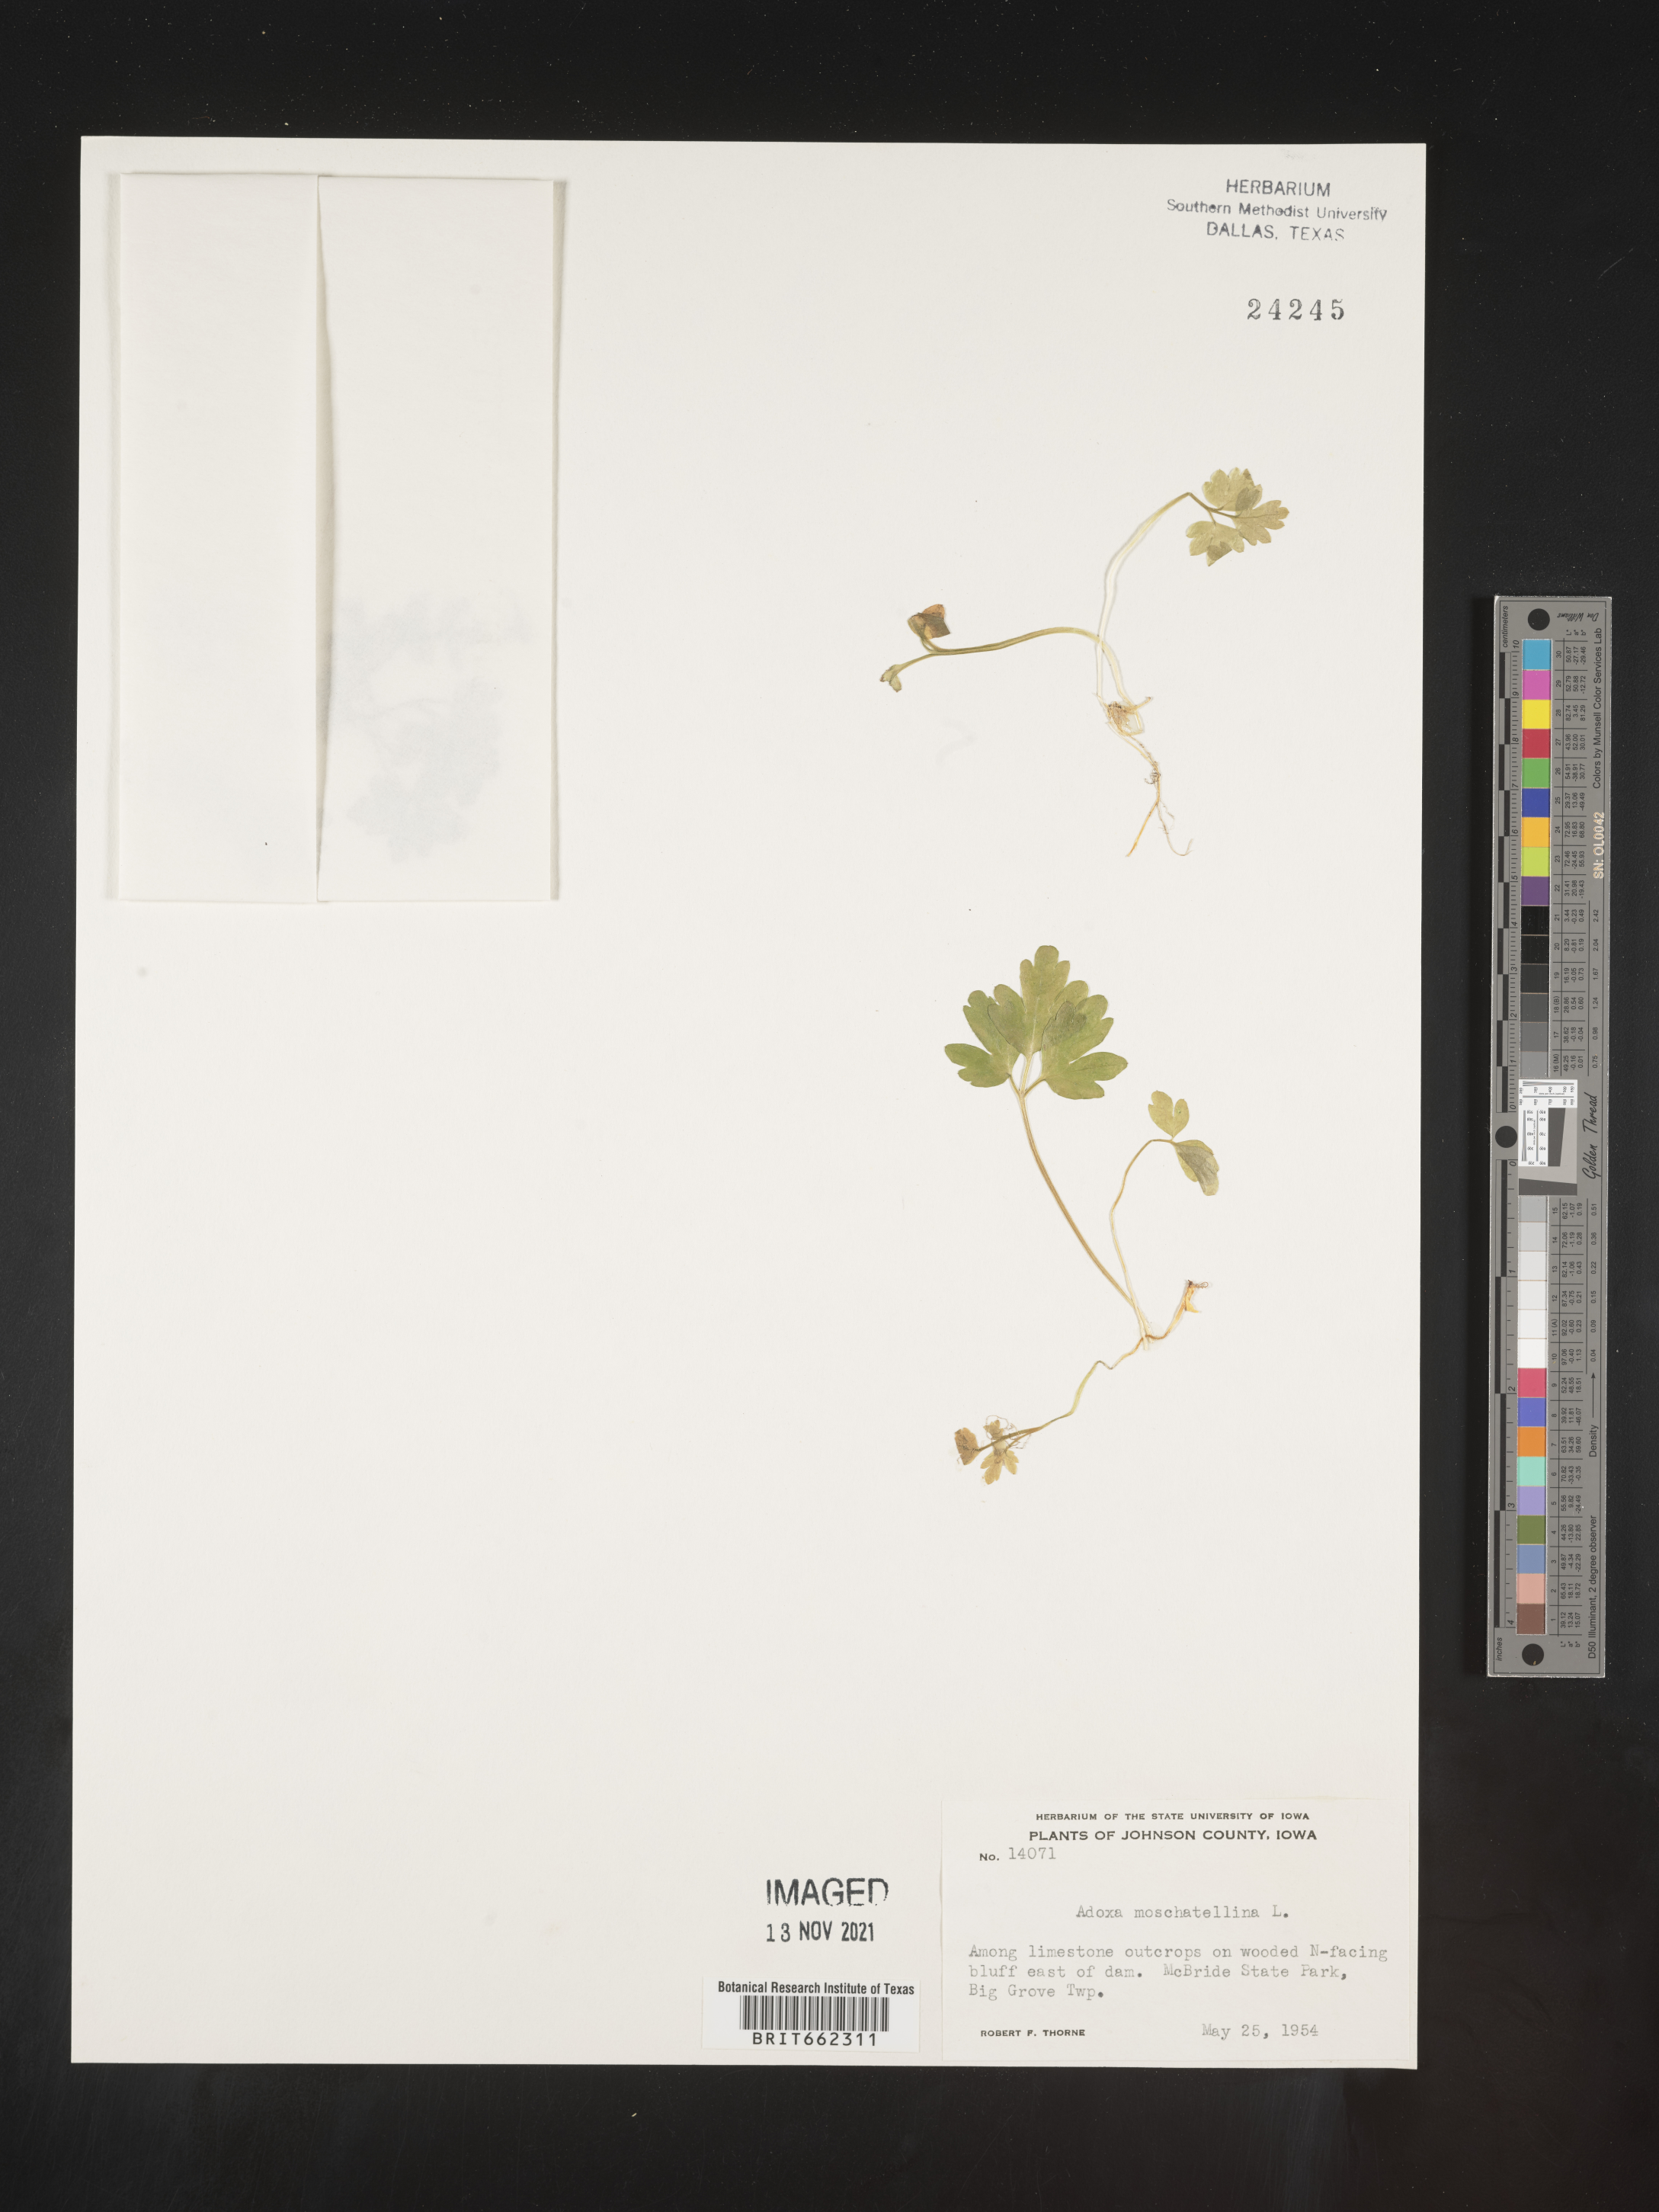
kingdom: Plantae
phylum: Tracheophyta
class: Magnoliopsida
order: Dipsacales
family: Viburnaceae
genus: Adoxa
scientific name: Adoxa
